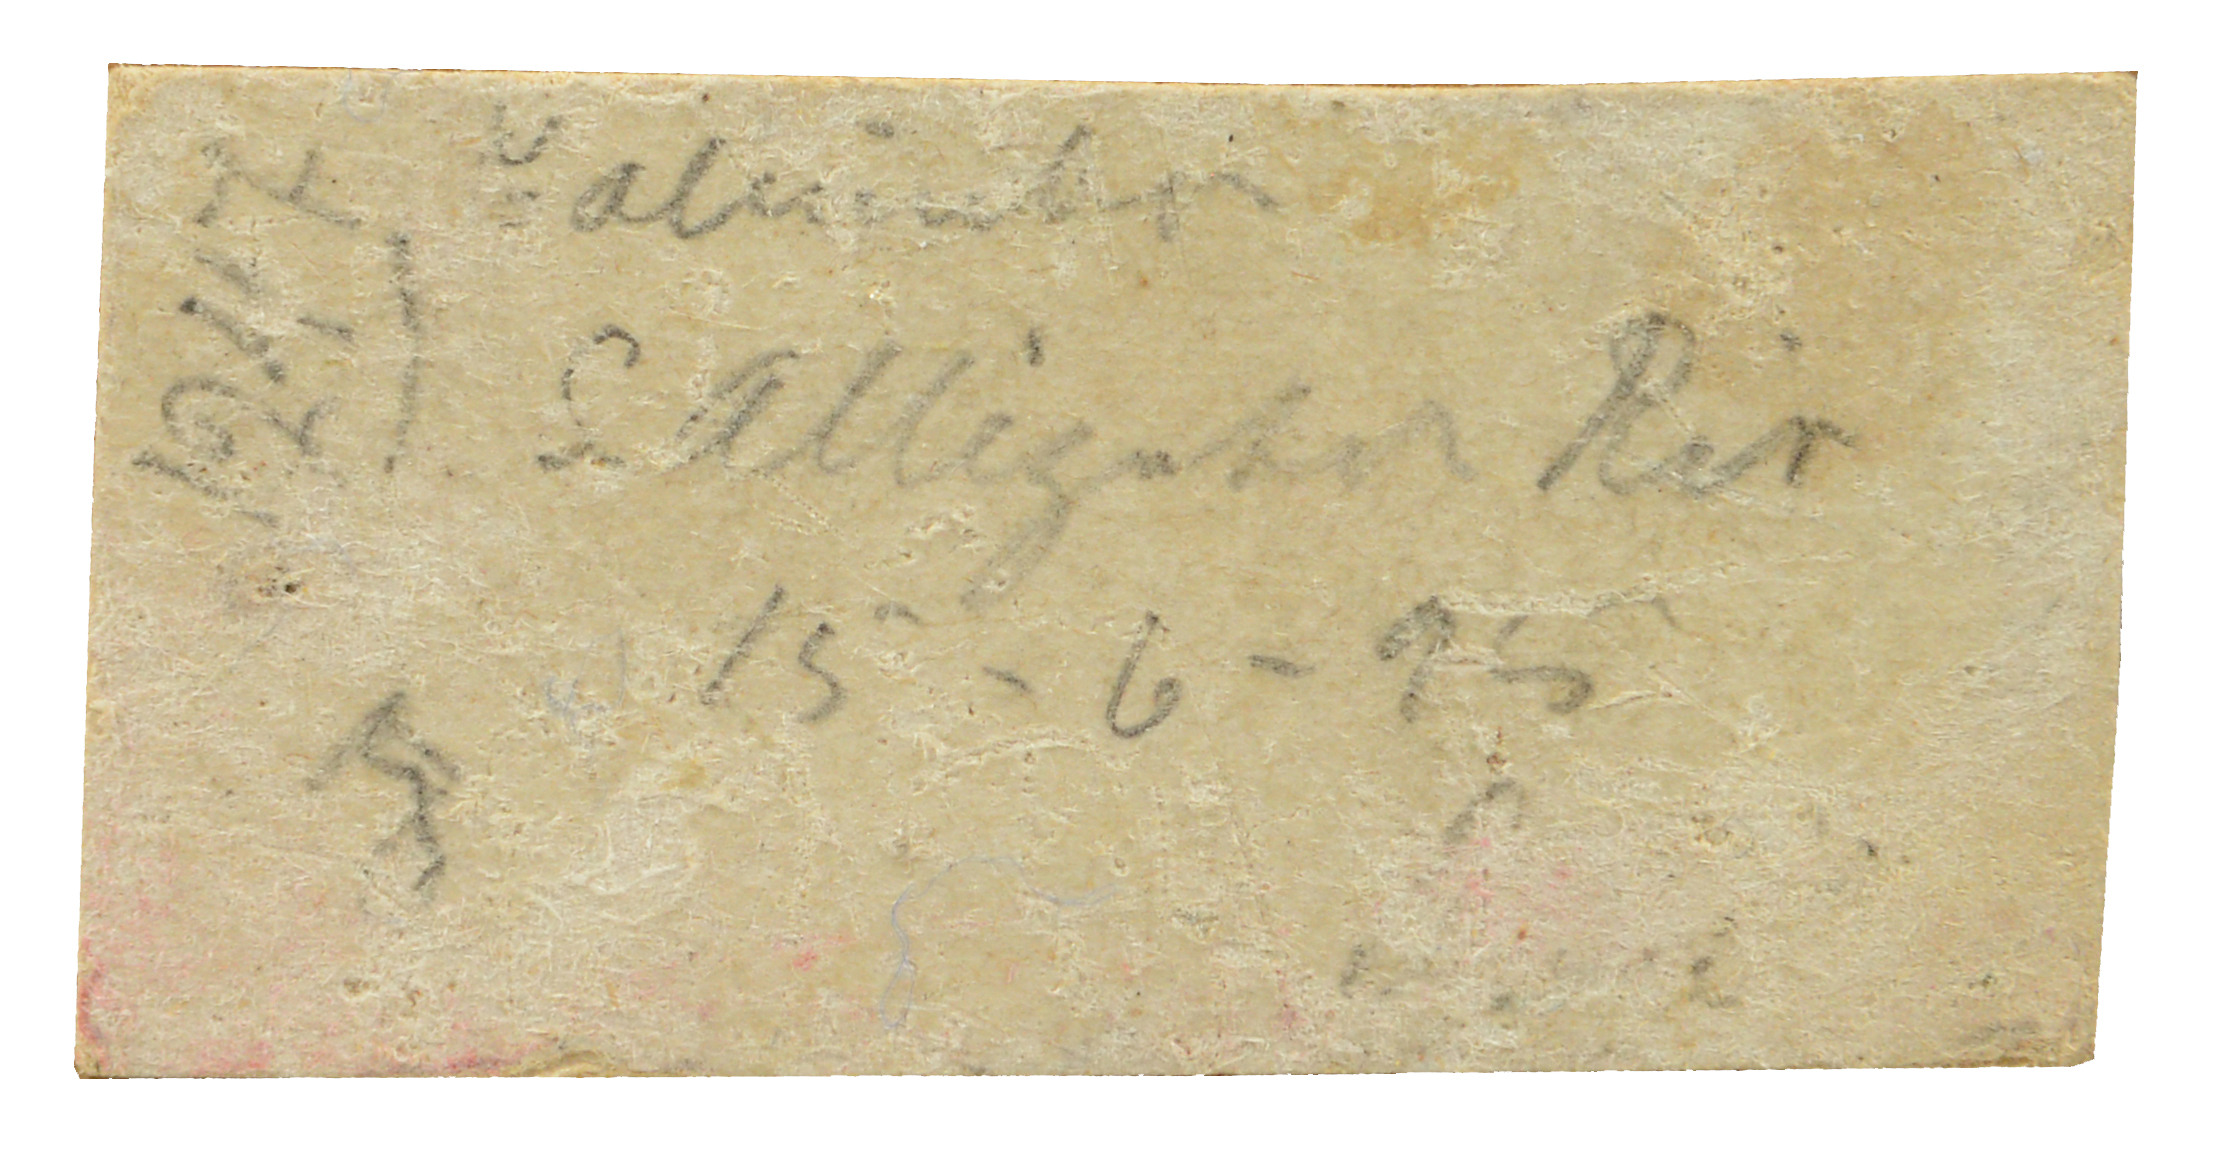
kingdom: Animalia
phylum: Chordata
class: Aves
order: Columbiformes
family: Columbidae
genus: Ptilinopus
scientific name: Ptilinopus alligator
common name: Black-banded fruit-dove
